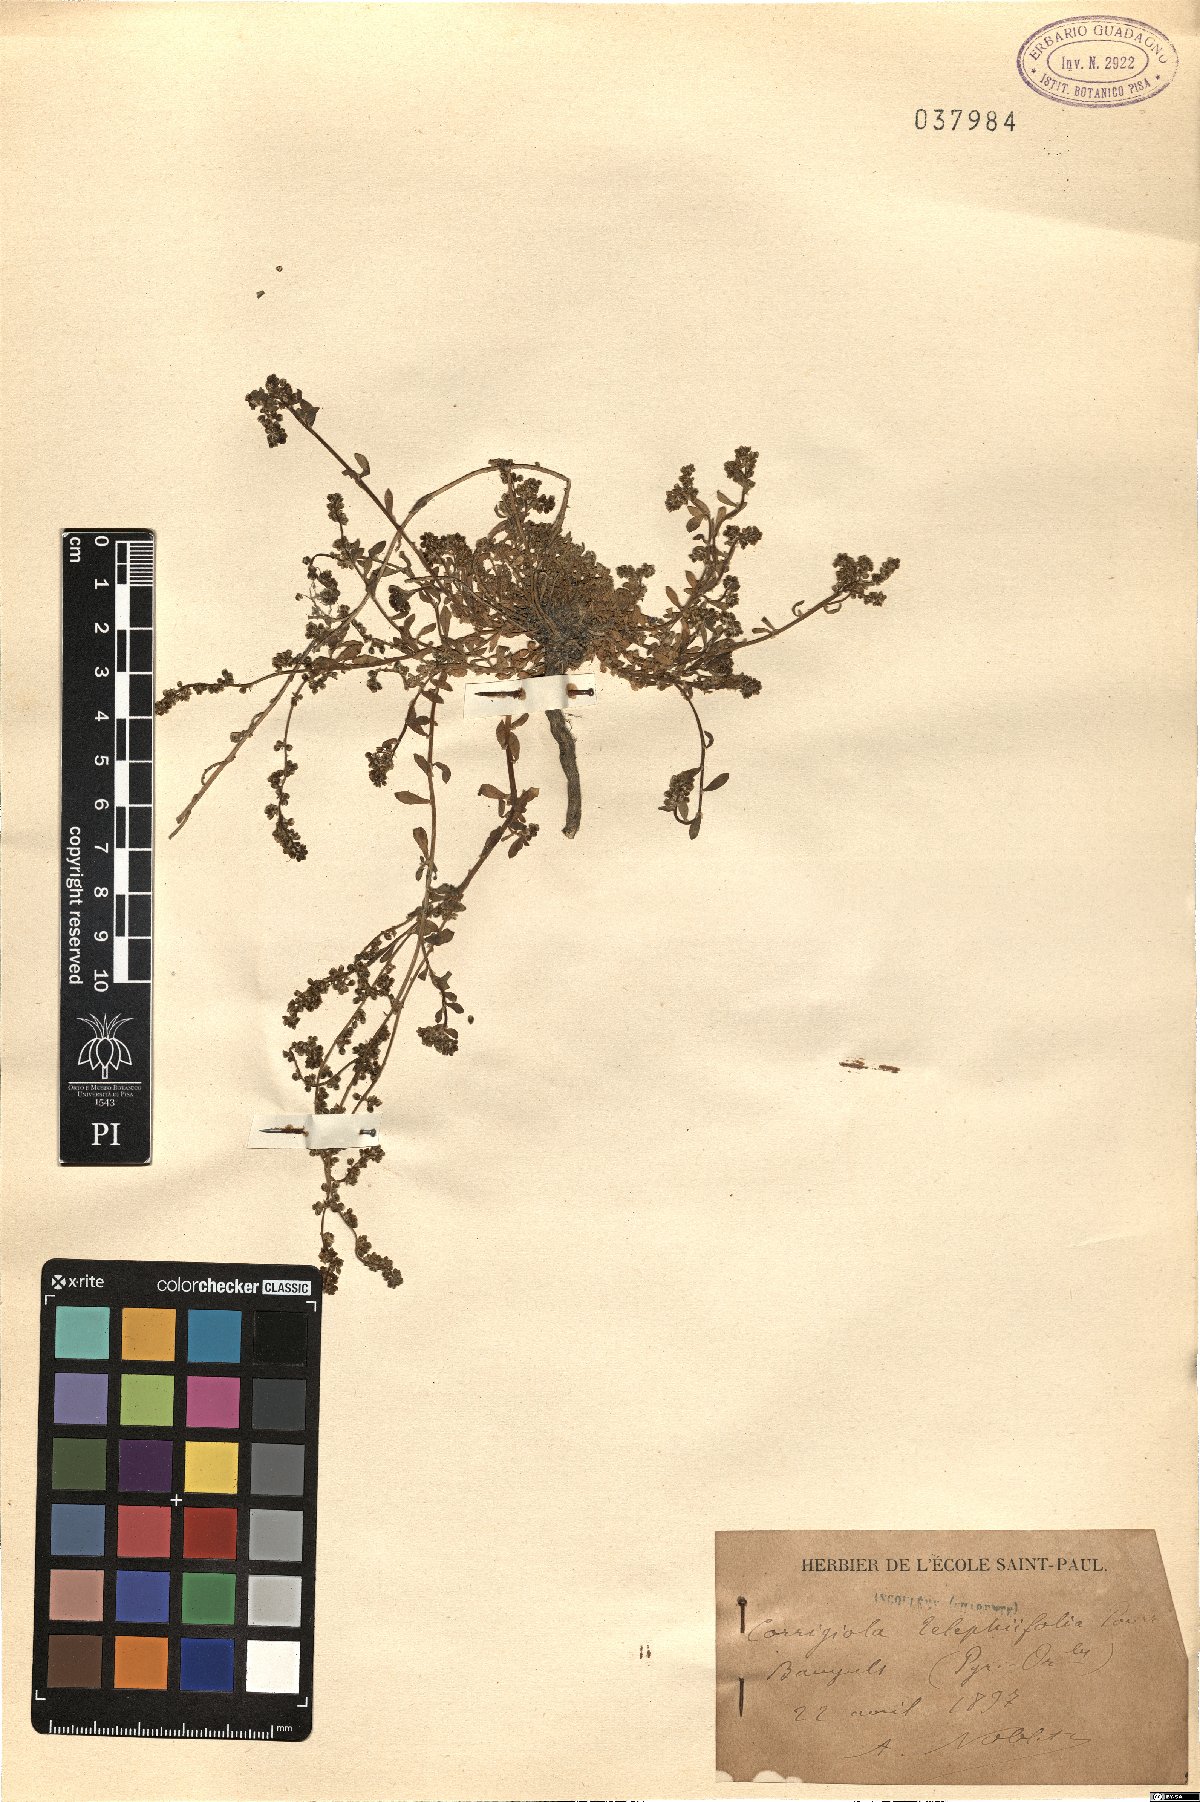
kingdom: Plantae
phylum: Tracheophyta
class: Magnoliopsida
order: Caryophyllales
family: Caryophyllaceae
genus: Corrigiola
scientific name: Corrigiola telephiifolia
